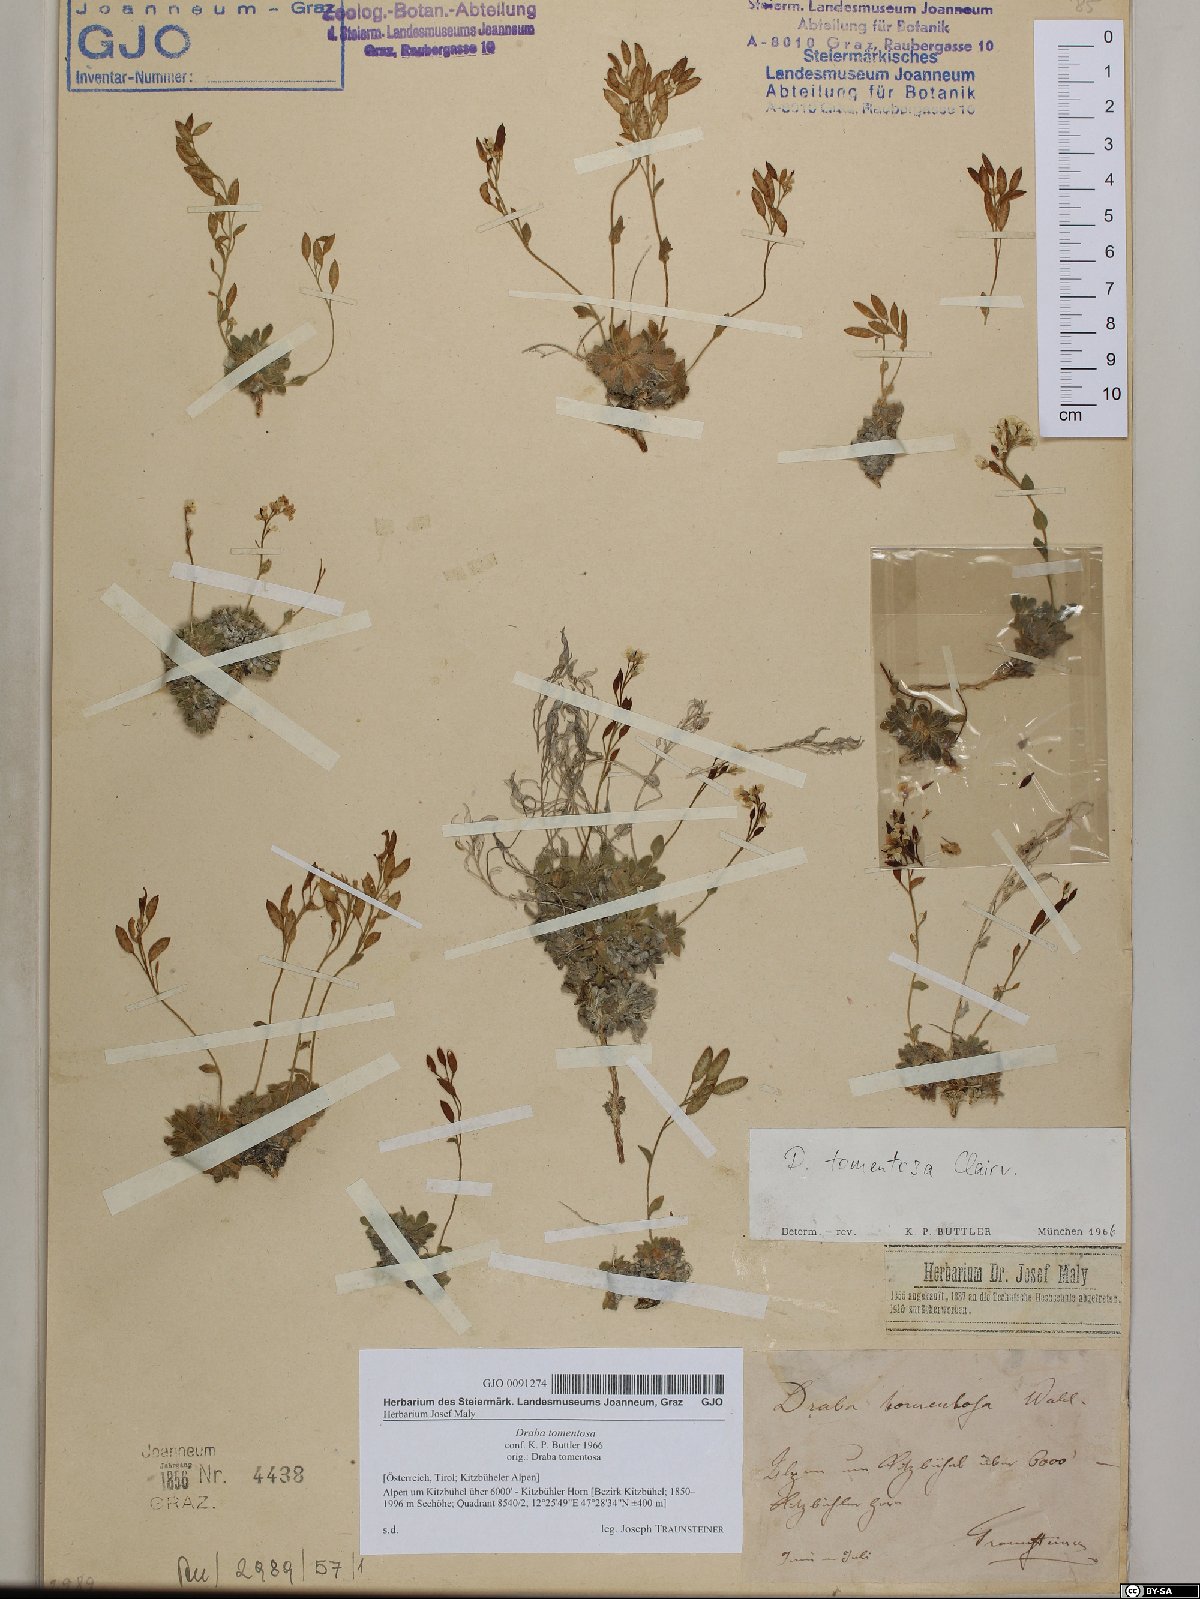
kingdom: Plantae
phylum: Tracheophyta
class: Magnoliopsida
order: Brassicales
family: Brassicaceae
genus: Draba
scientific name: Draba tomentosa
